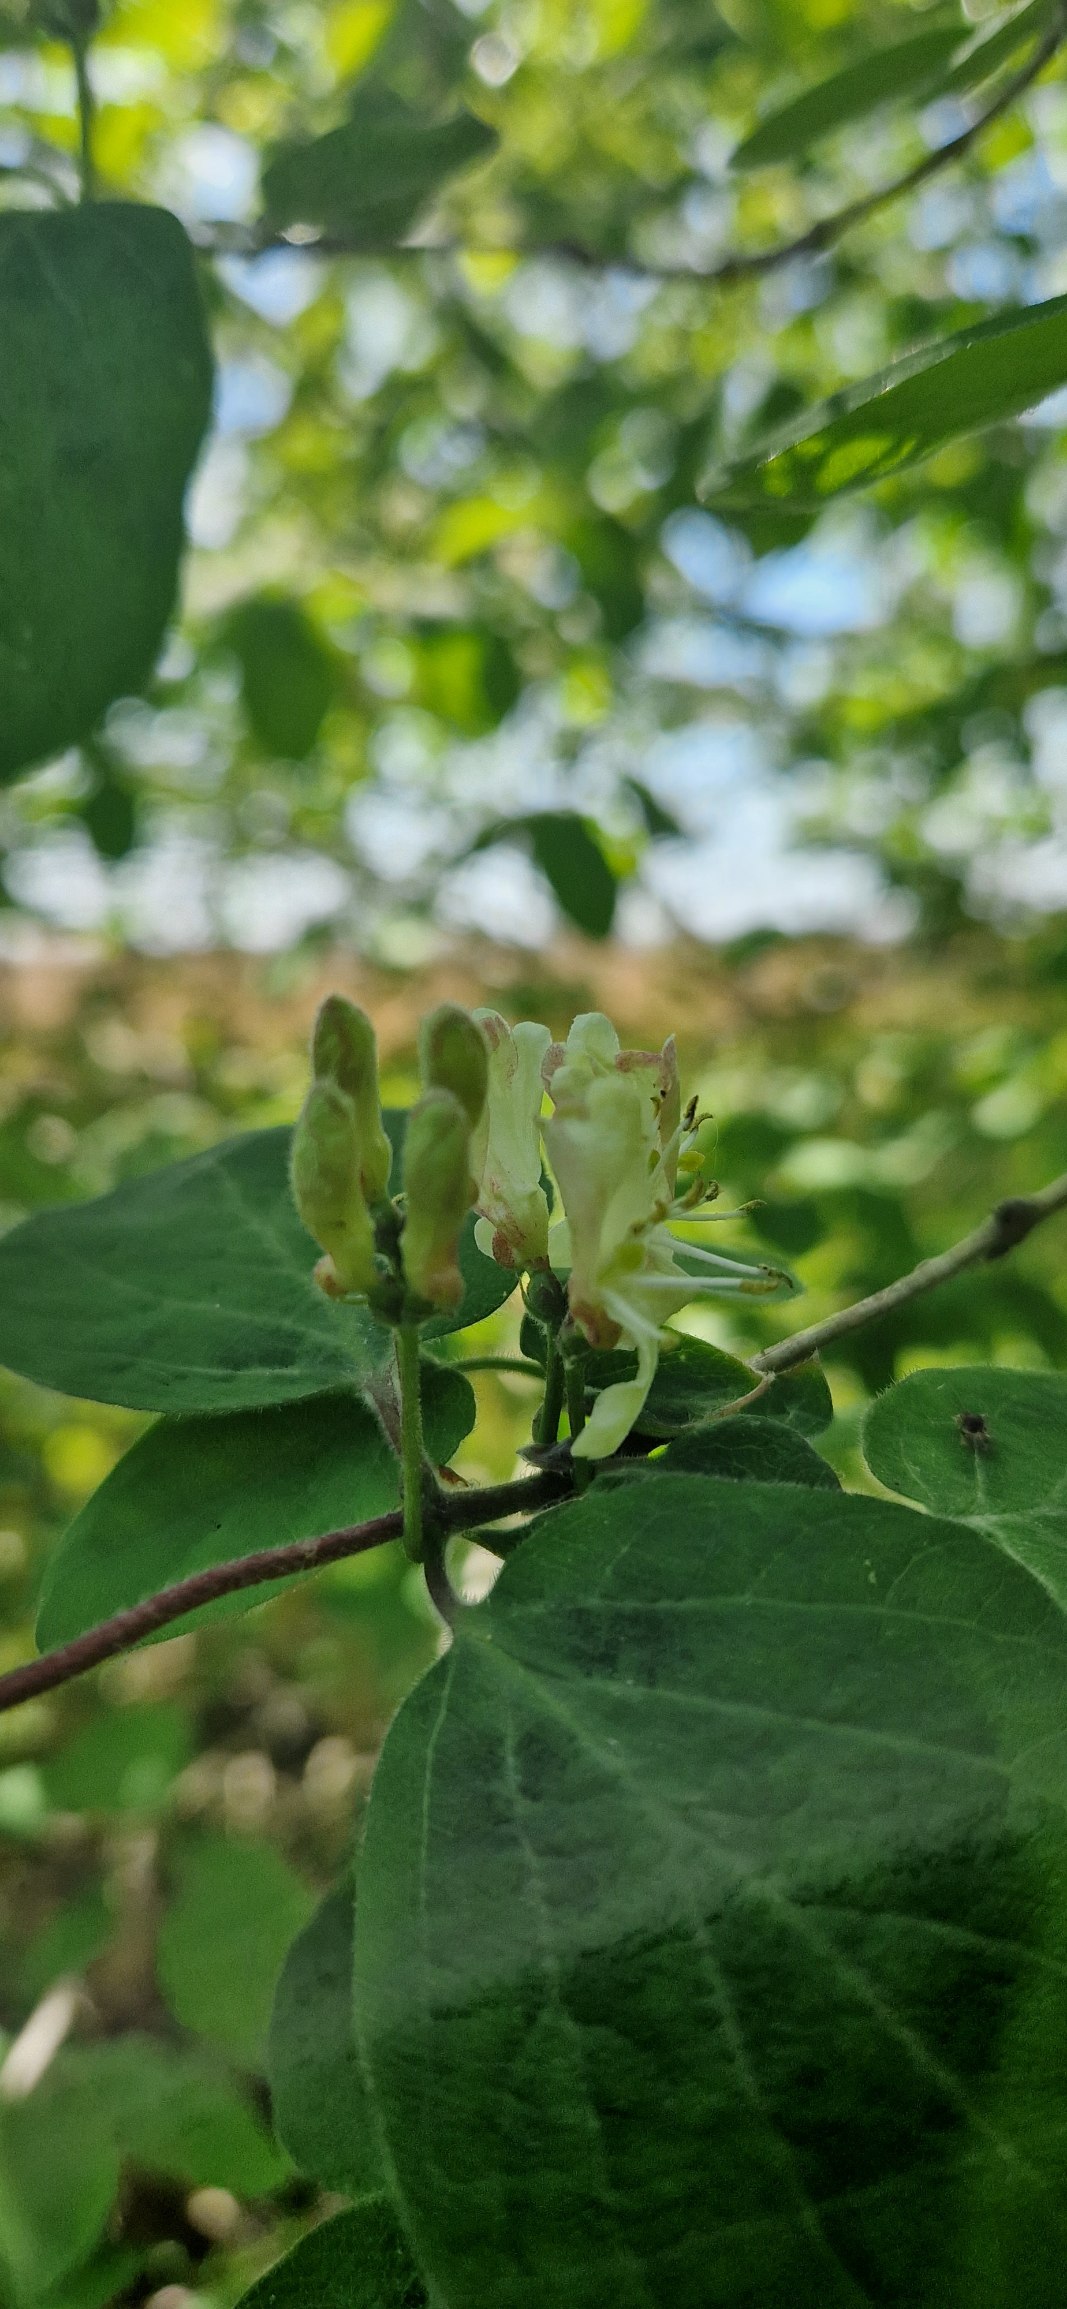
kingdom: Plantae
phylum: Tracheophyta
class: Magnoliopsida
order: Dipsacales
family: Caprifoliaceae
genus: Lonicera
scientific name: Lonicera xylosteum
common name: Dunet gedeblad
